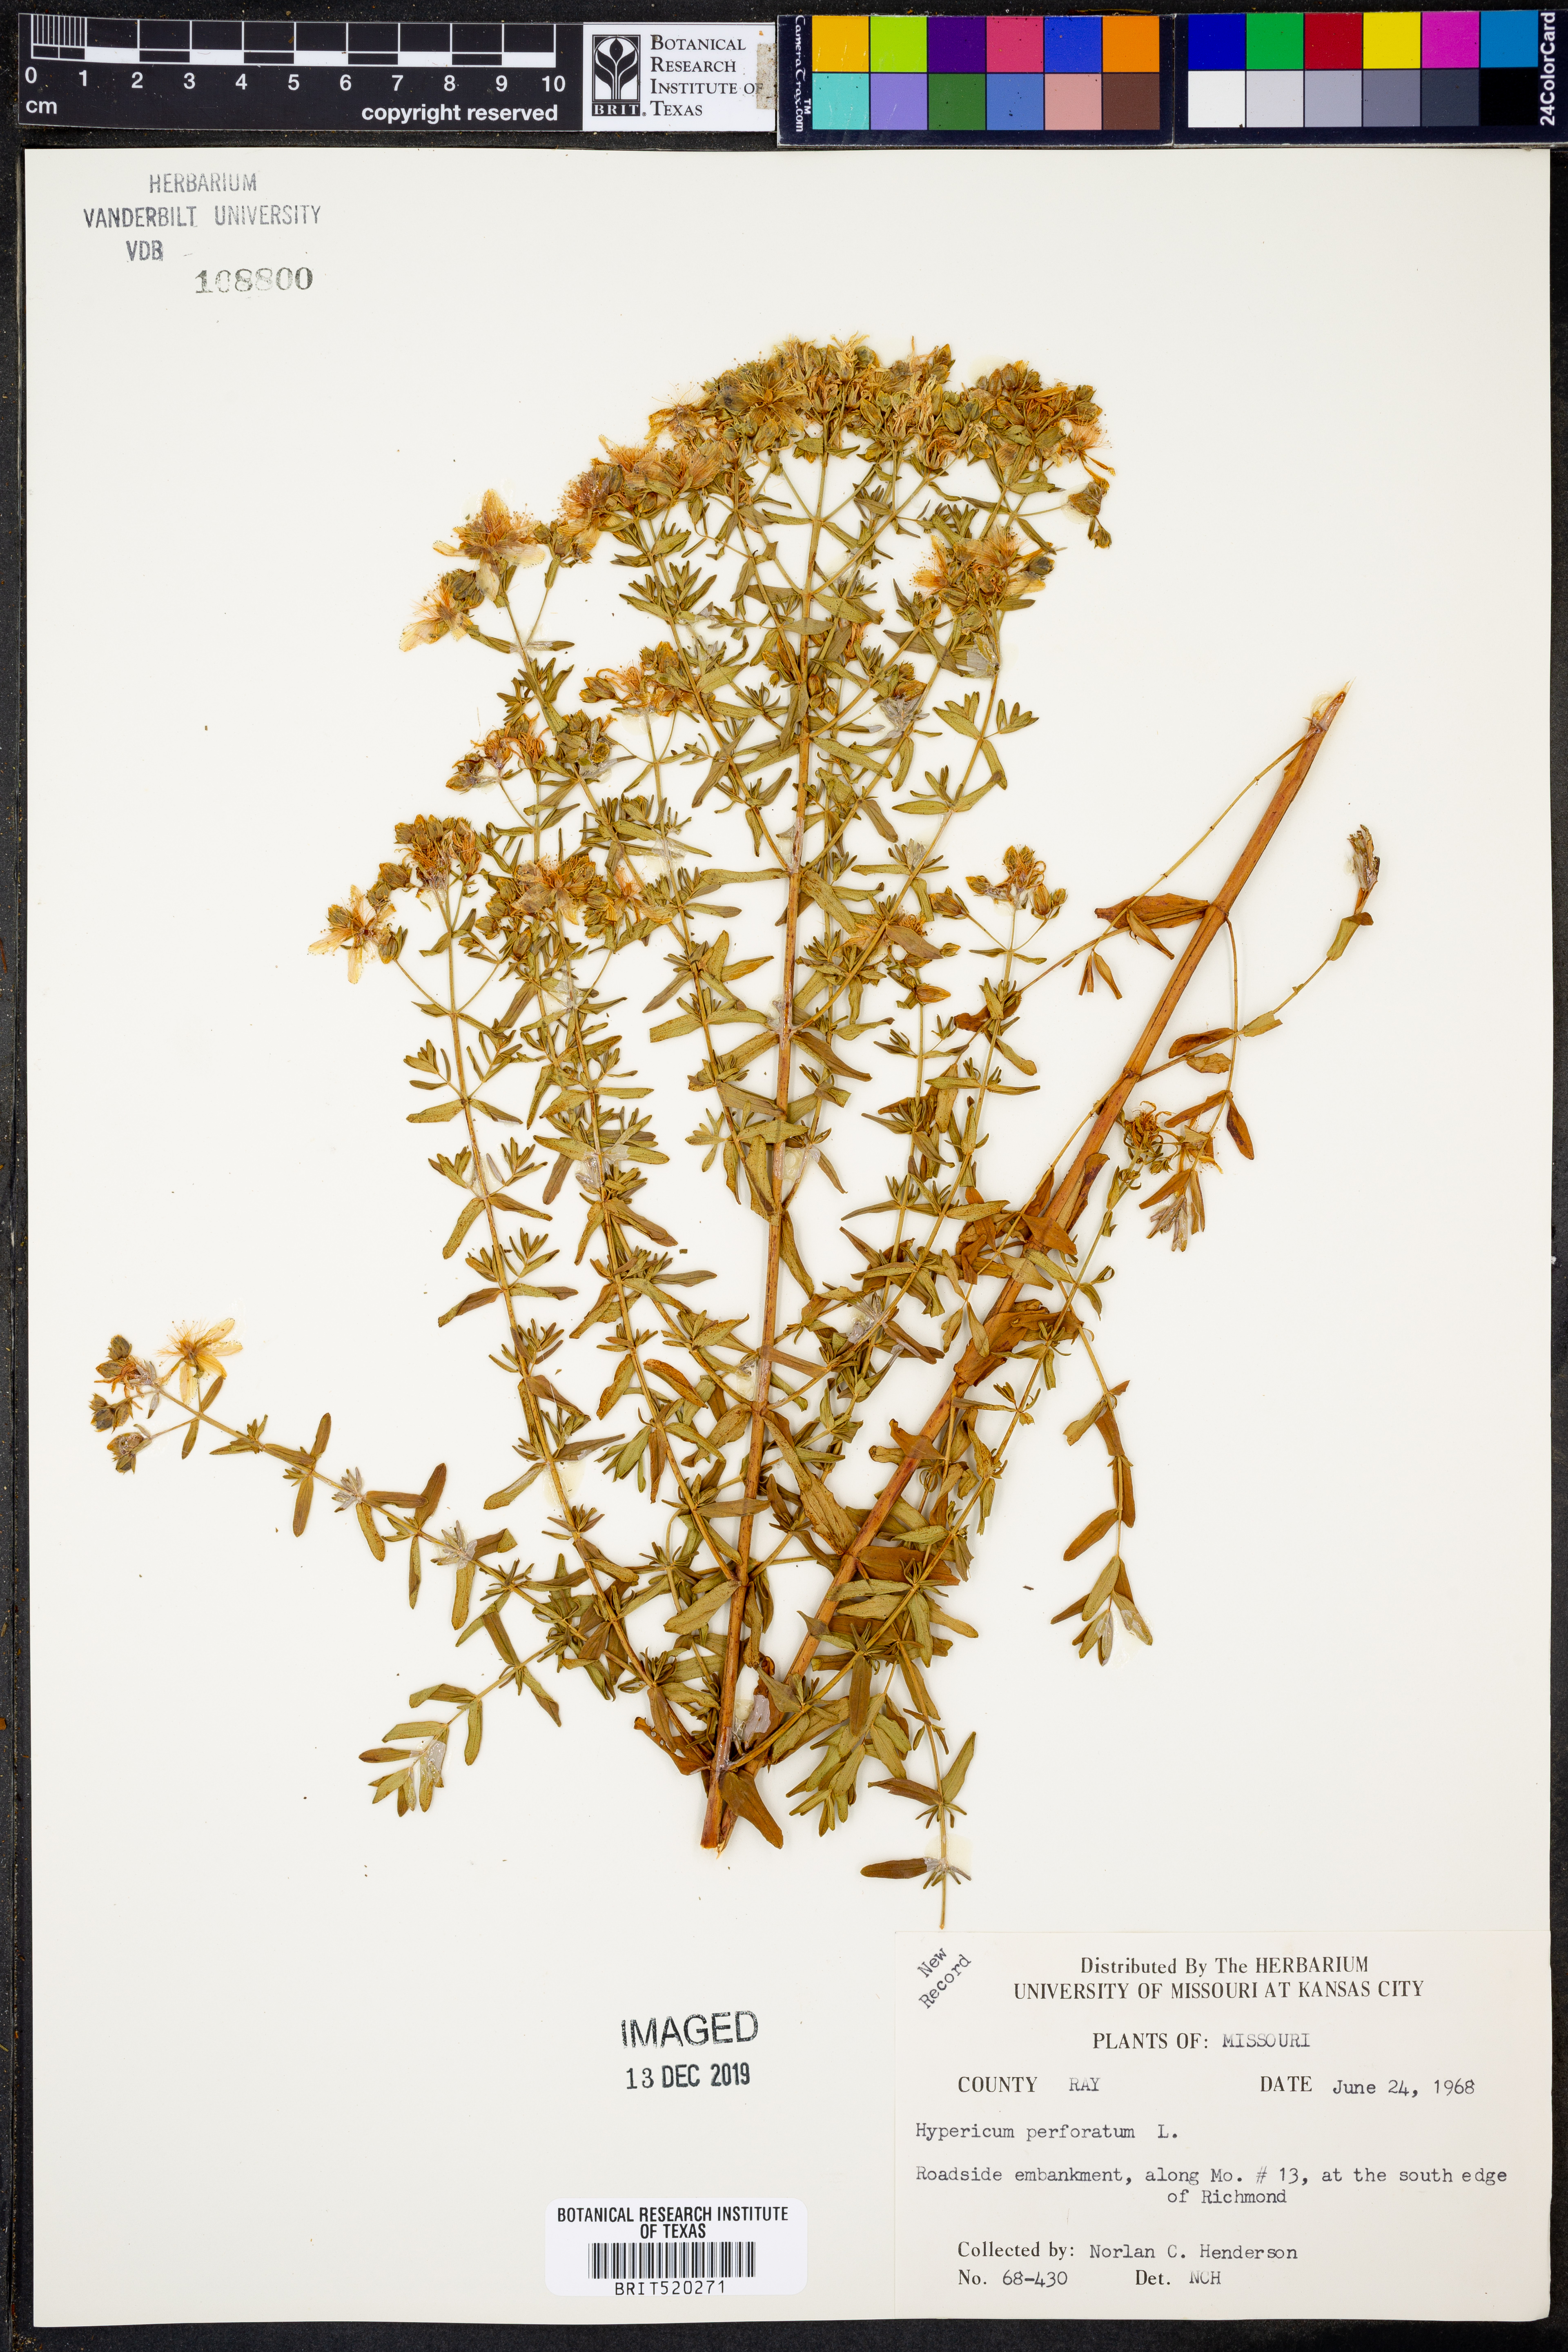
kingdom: Plantae
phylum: Tracheophyta
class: Magnoliopsida
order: Malpighiales
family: Hypericaceae
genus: Hypericum
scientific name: Hypericum perforatum
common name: Common st. johnswort
